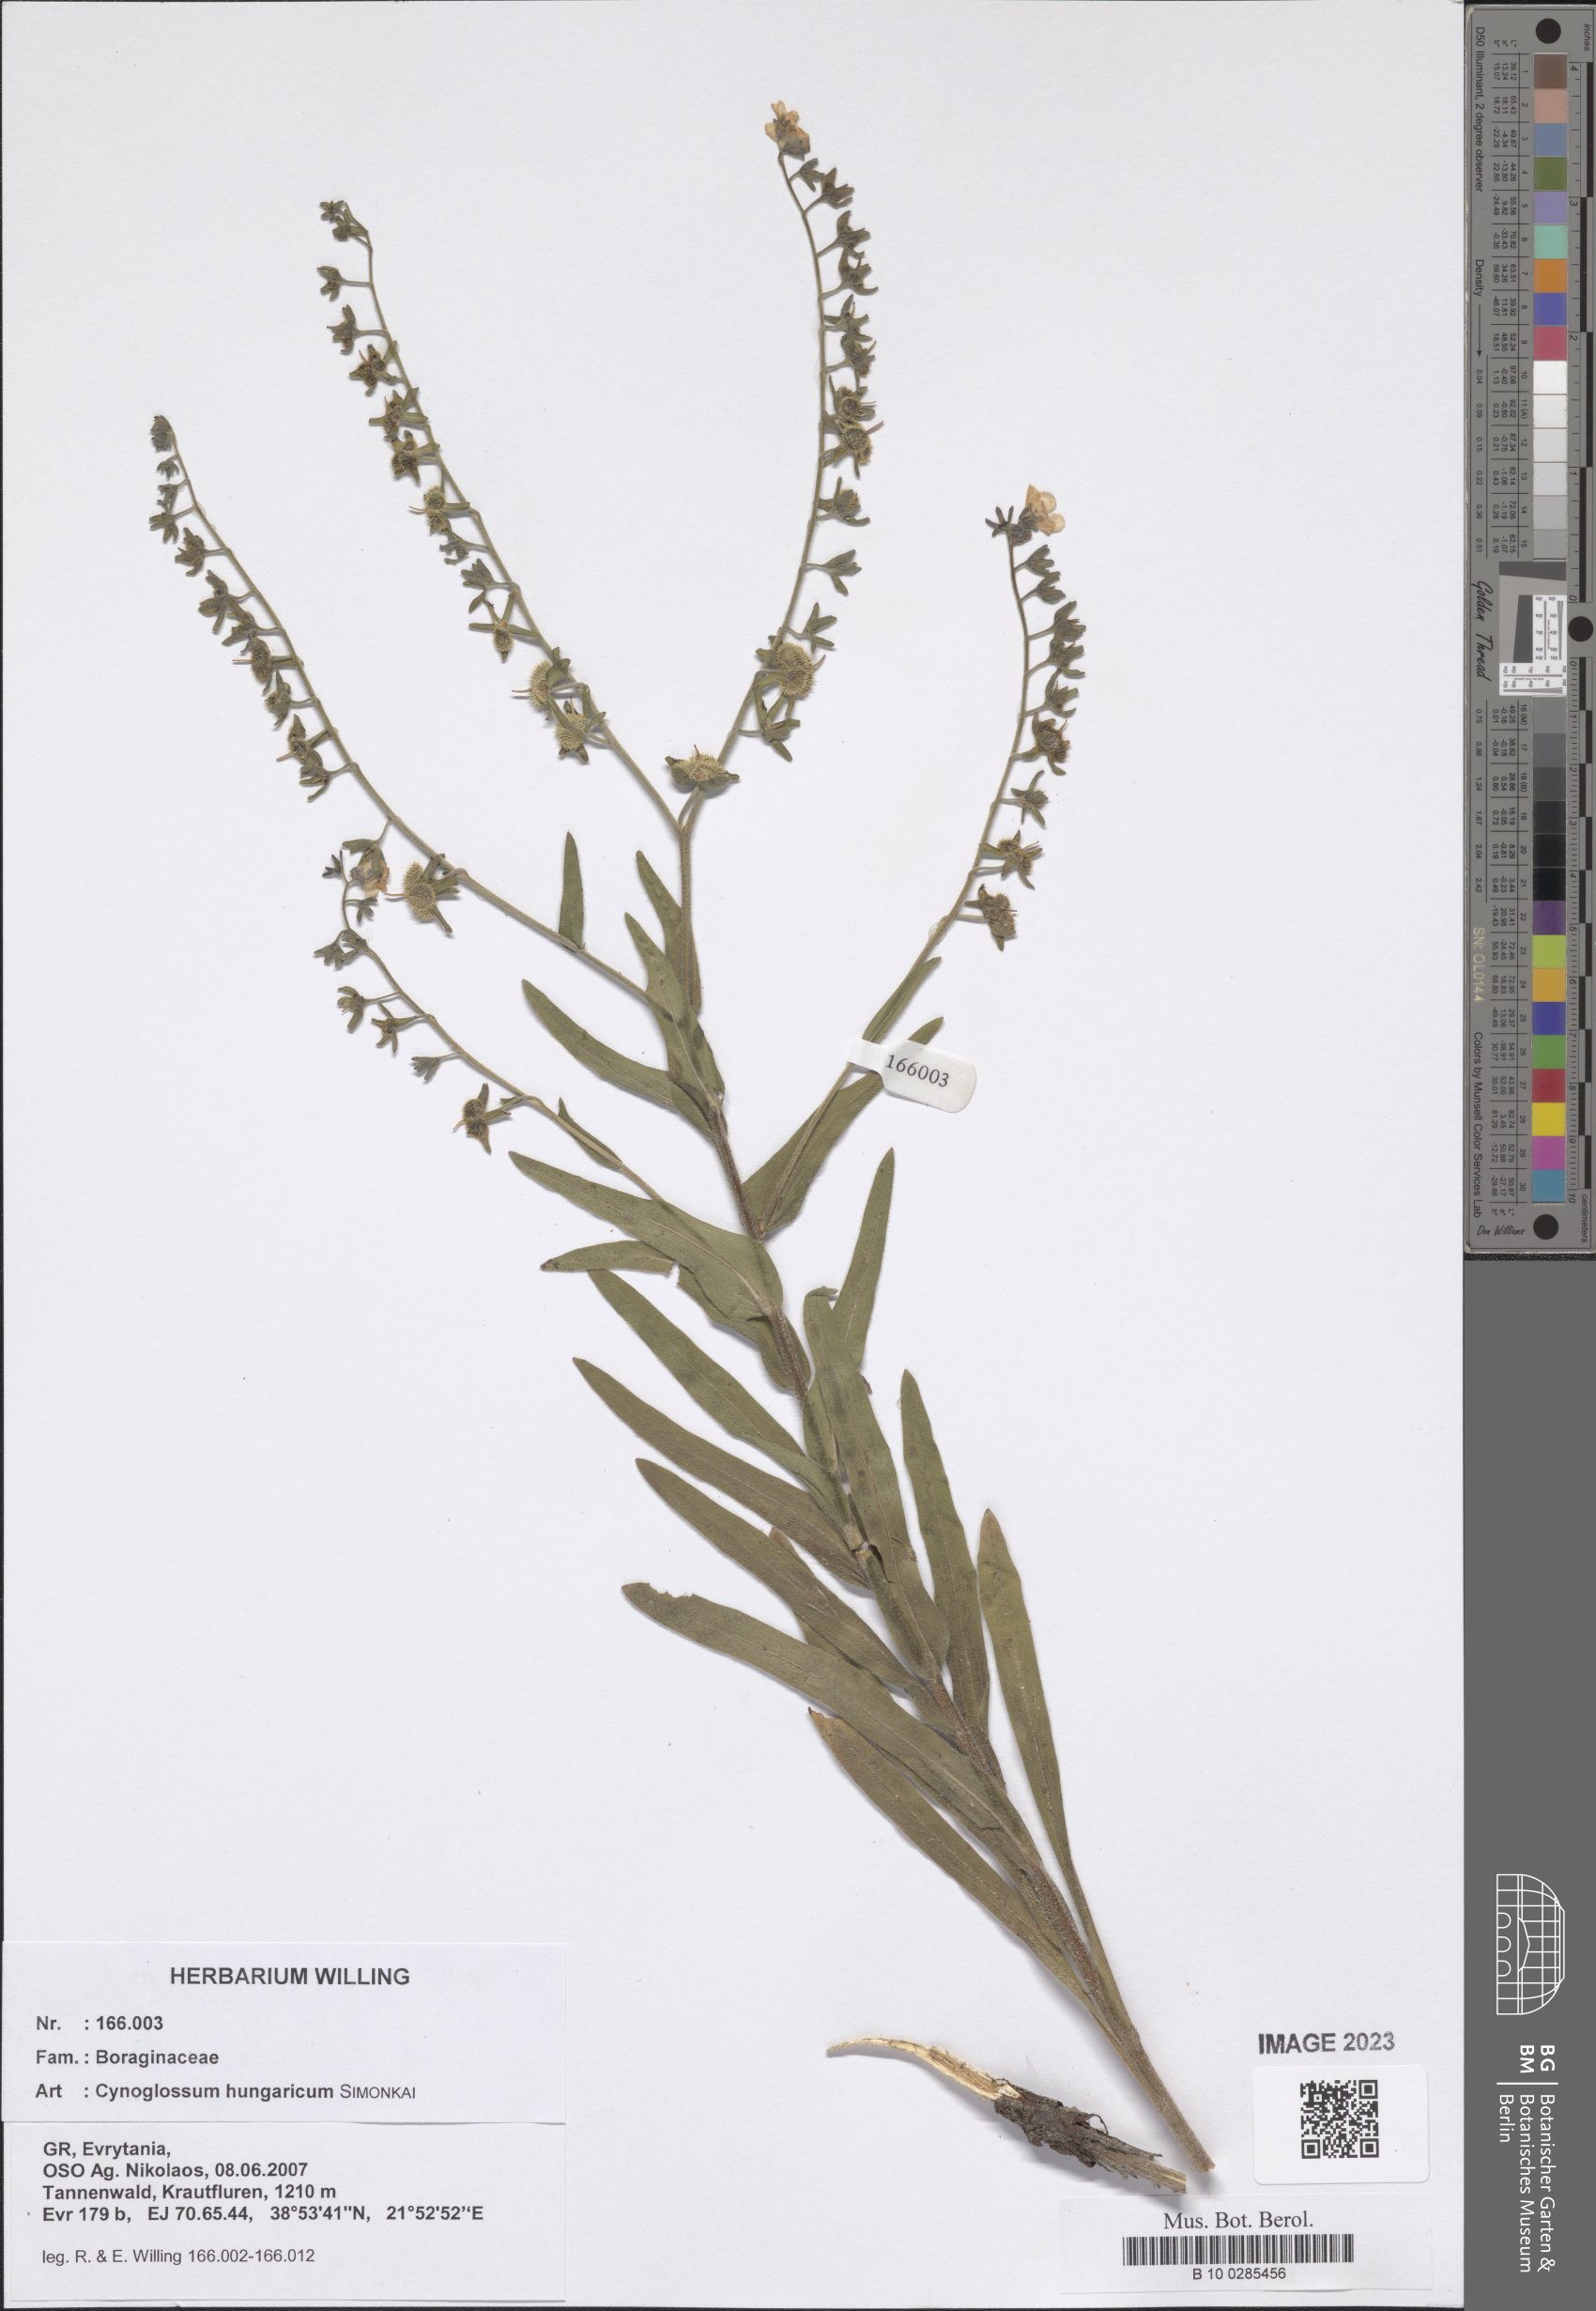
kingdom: Plantae
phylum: Tracheophyta
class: Magnoliopsida
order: Boraginales
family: Boraginaceae
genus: Cynoglossum
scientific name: Cynoglossum montanum
